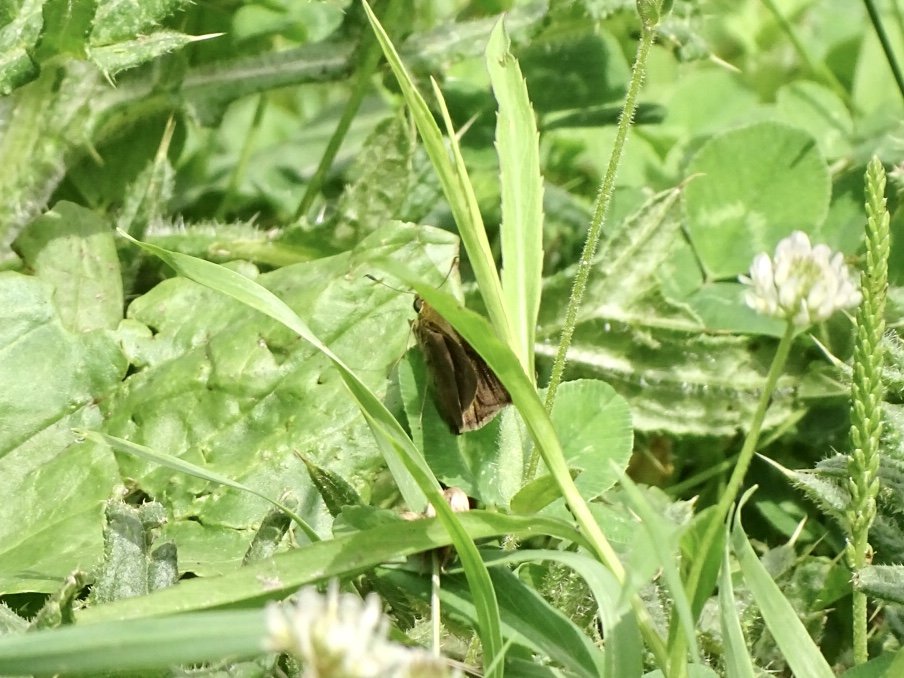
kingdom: Animalia
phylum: Arthropoda
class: Insecta
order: Lepidoptera
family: Hesperiidae
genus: Euphyes
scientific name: Euphyes vestris
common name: Dun Skipper
